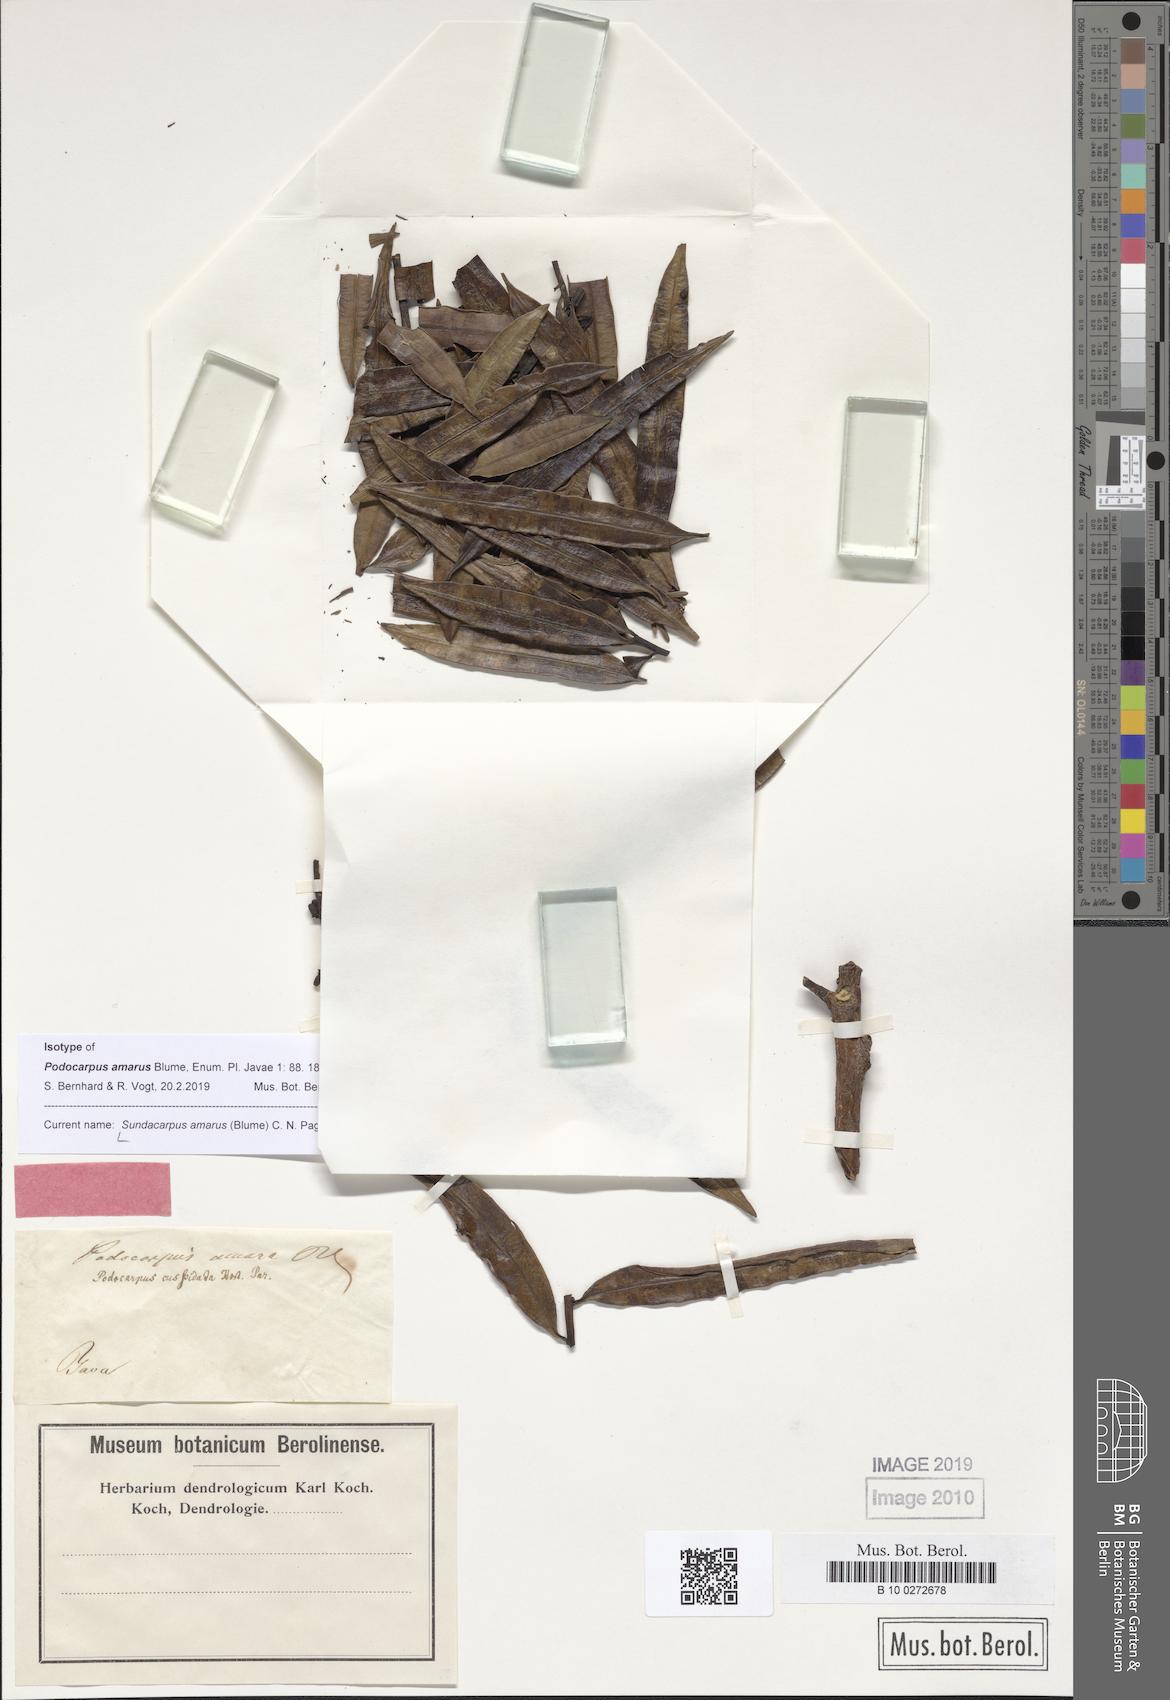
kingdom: Plantae
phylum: Tracheophyta
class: Pinopsida
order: Pinales
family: Podocarpaceae
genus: Sundacarpus
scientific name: Sundacarpus amarus
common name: Black pine
